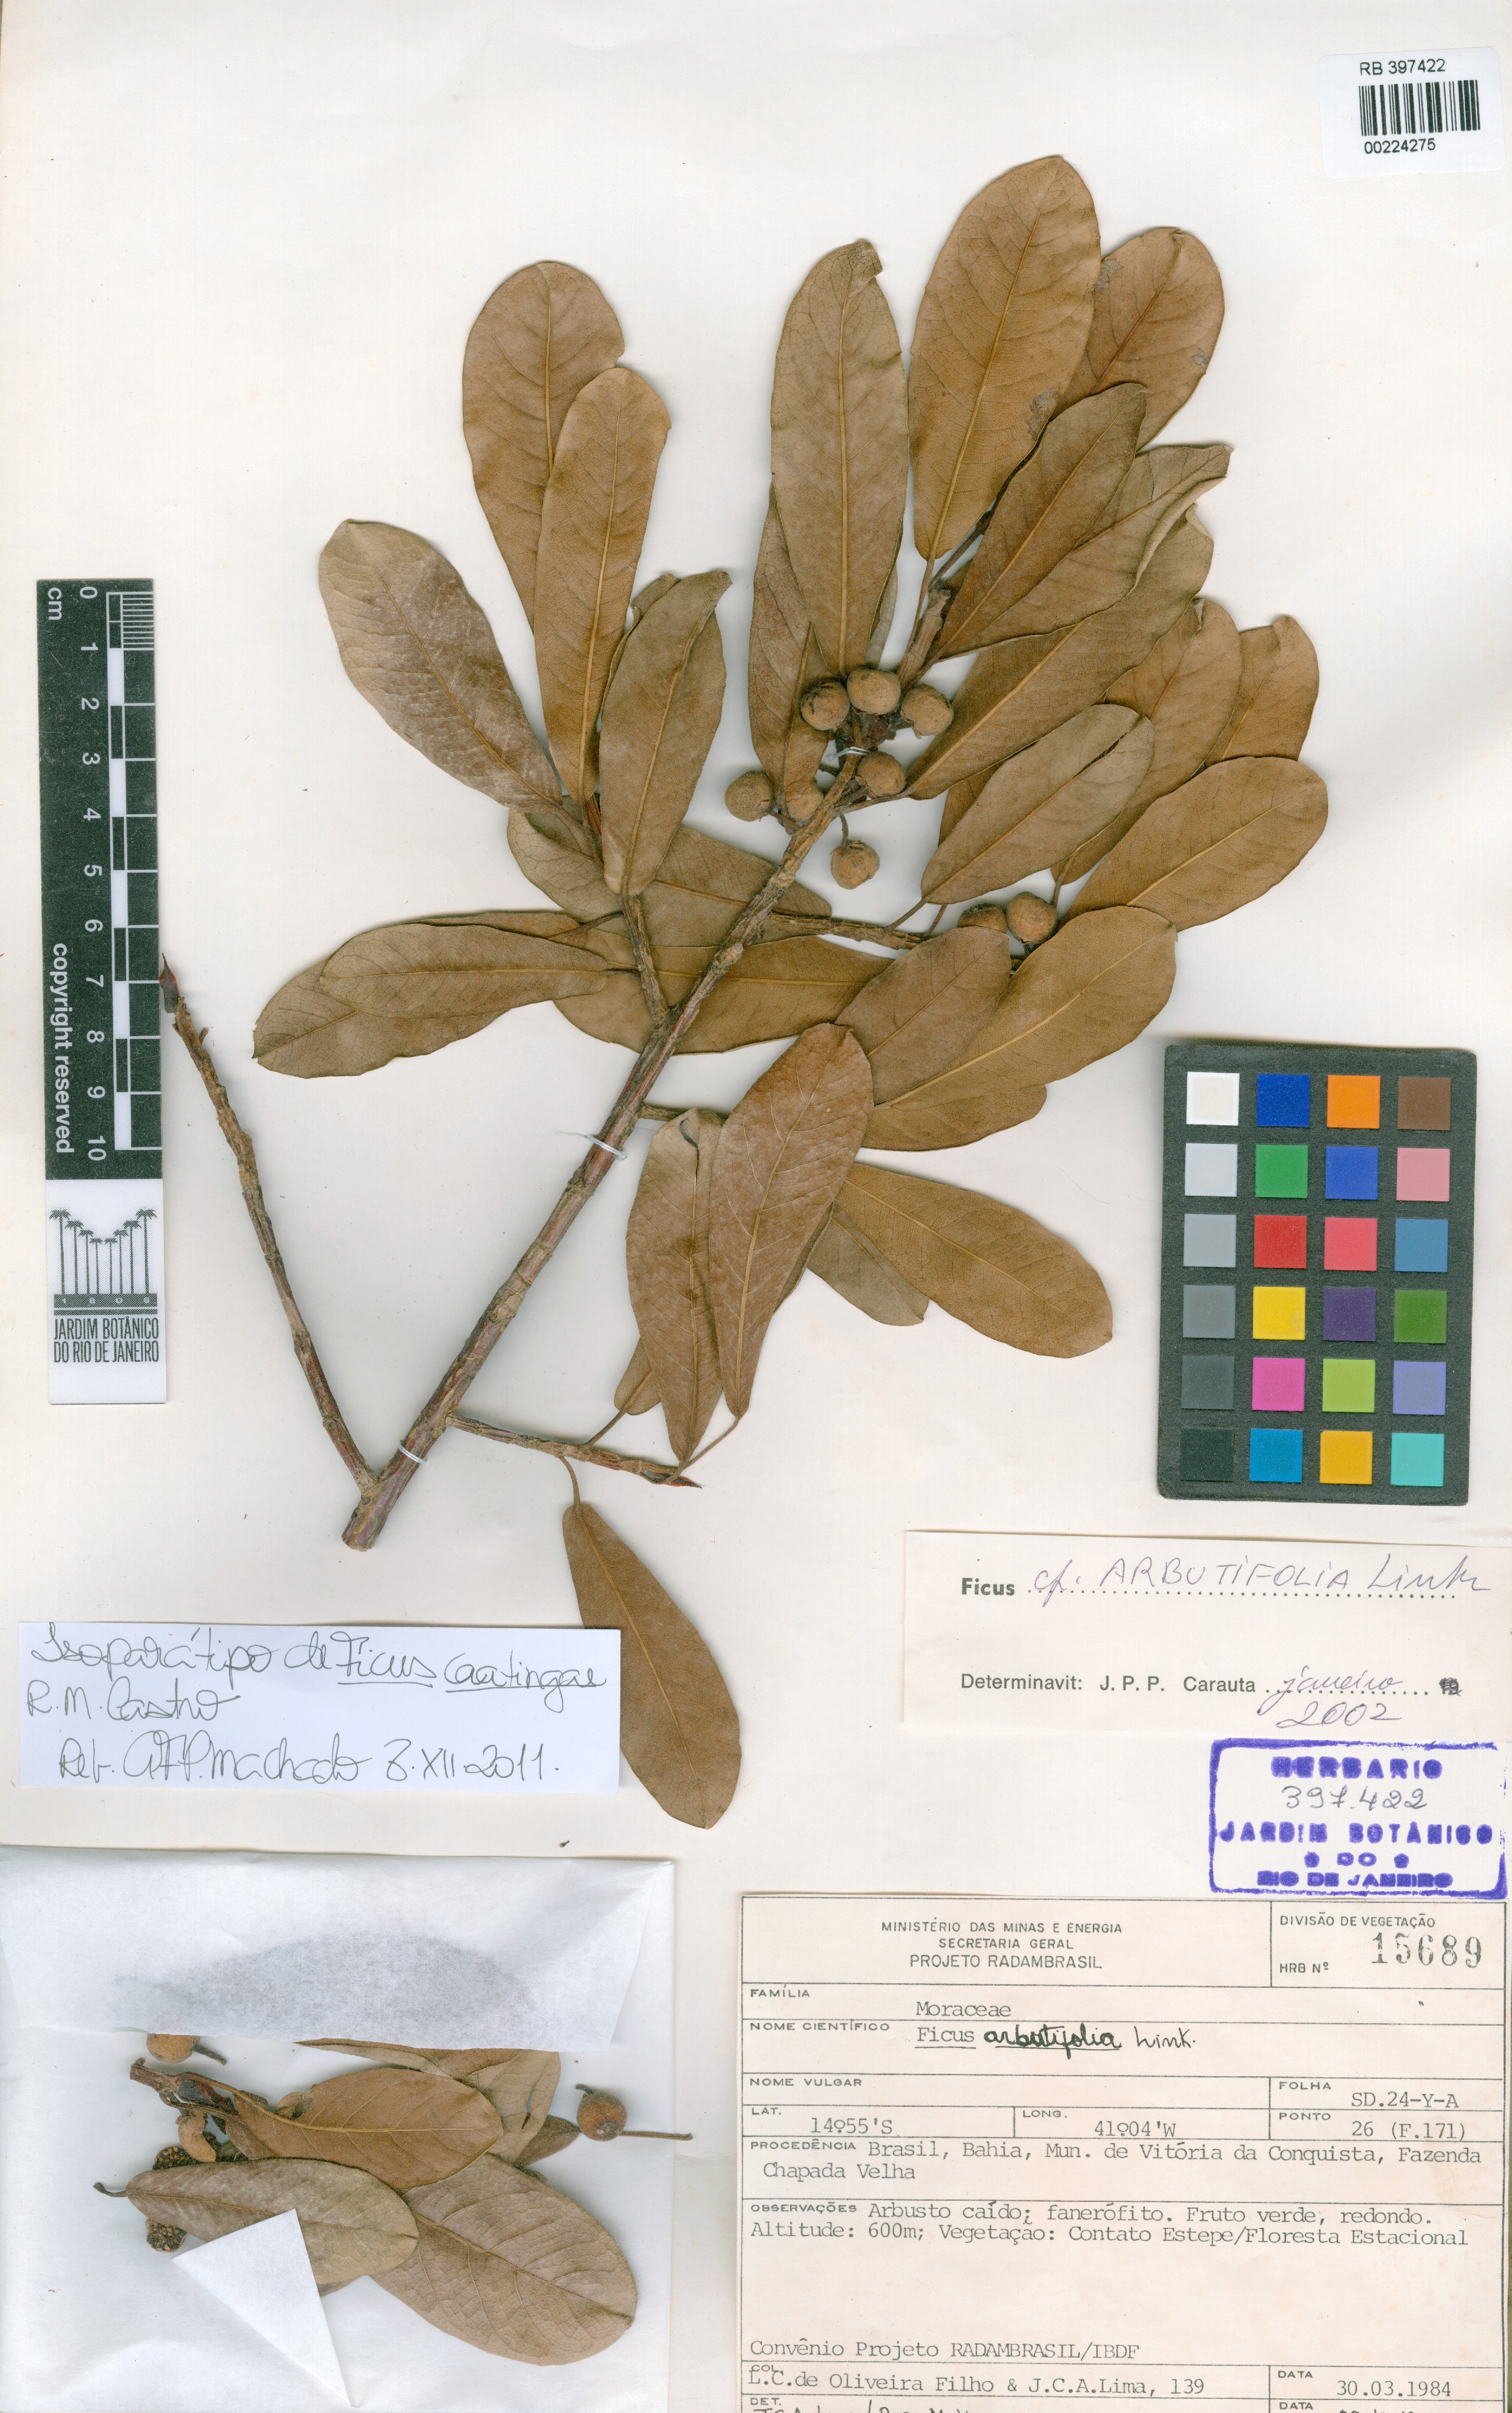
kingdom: Plantae
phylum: Tracheophyta
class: Magnoliopsida
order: Rosales
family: Moraceae
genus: Ficus
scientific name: Ficus caatingae
